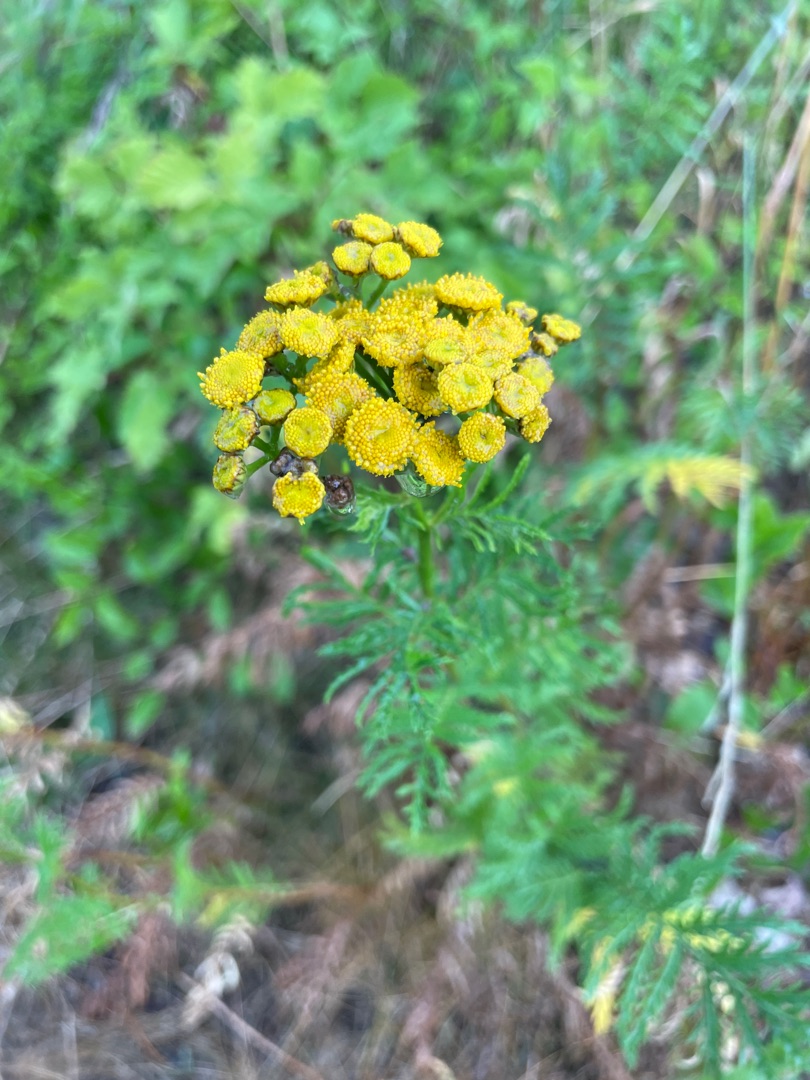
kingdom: Plantae
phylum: Tracheophyta
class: Magnoliopsida
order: Asterales
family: Asteraceae
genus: Tanacetum
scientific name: Tanacetum vulgare
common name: Rejnfan
